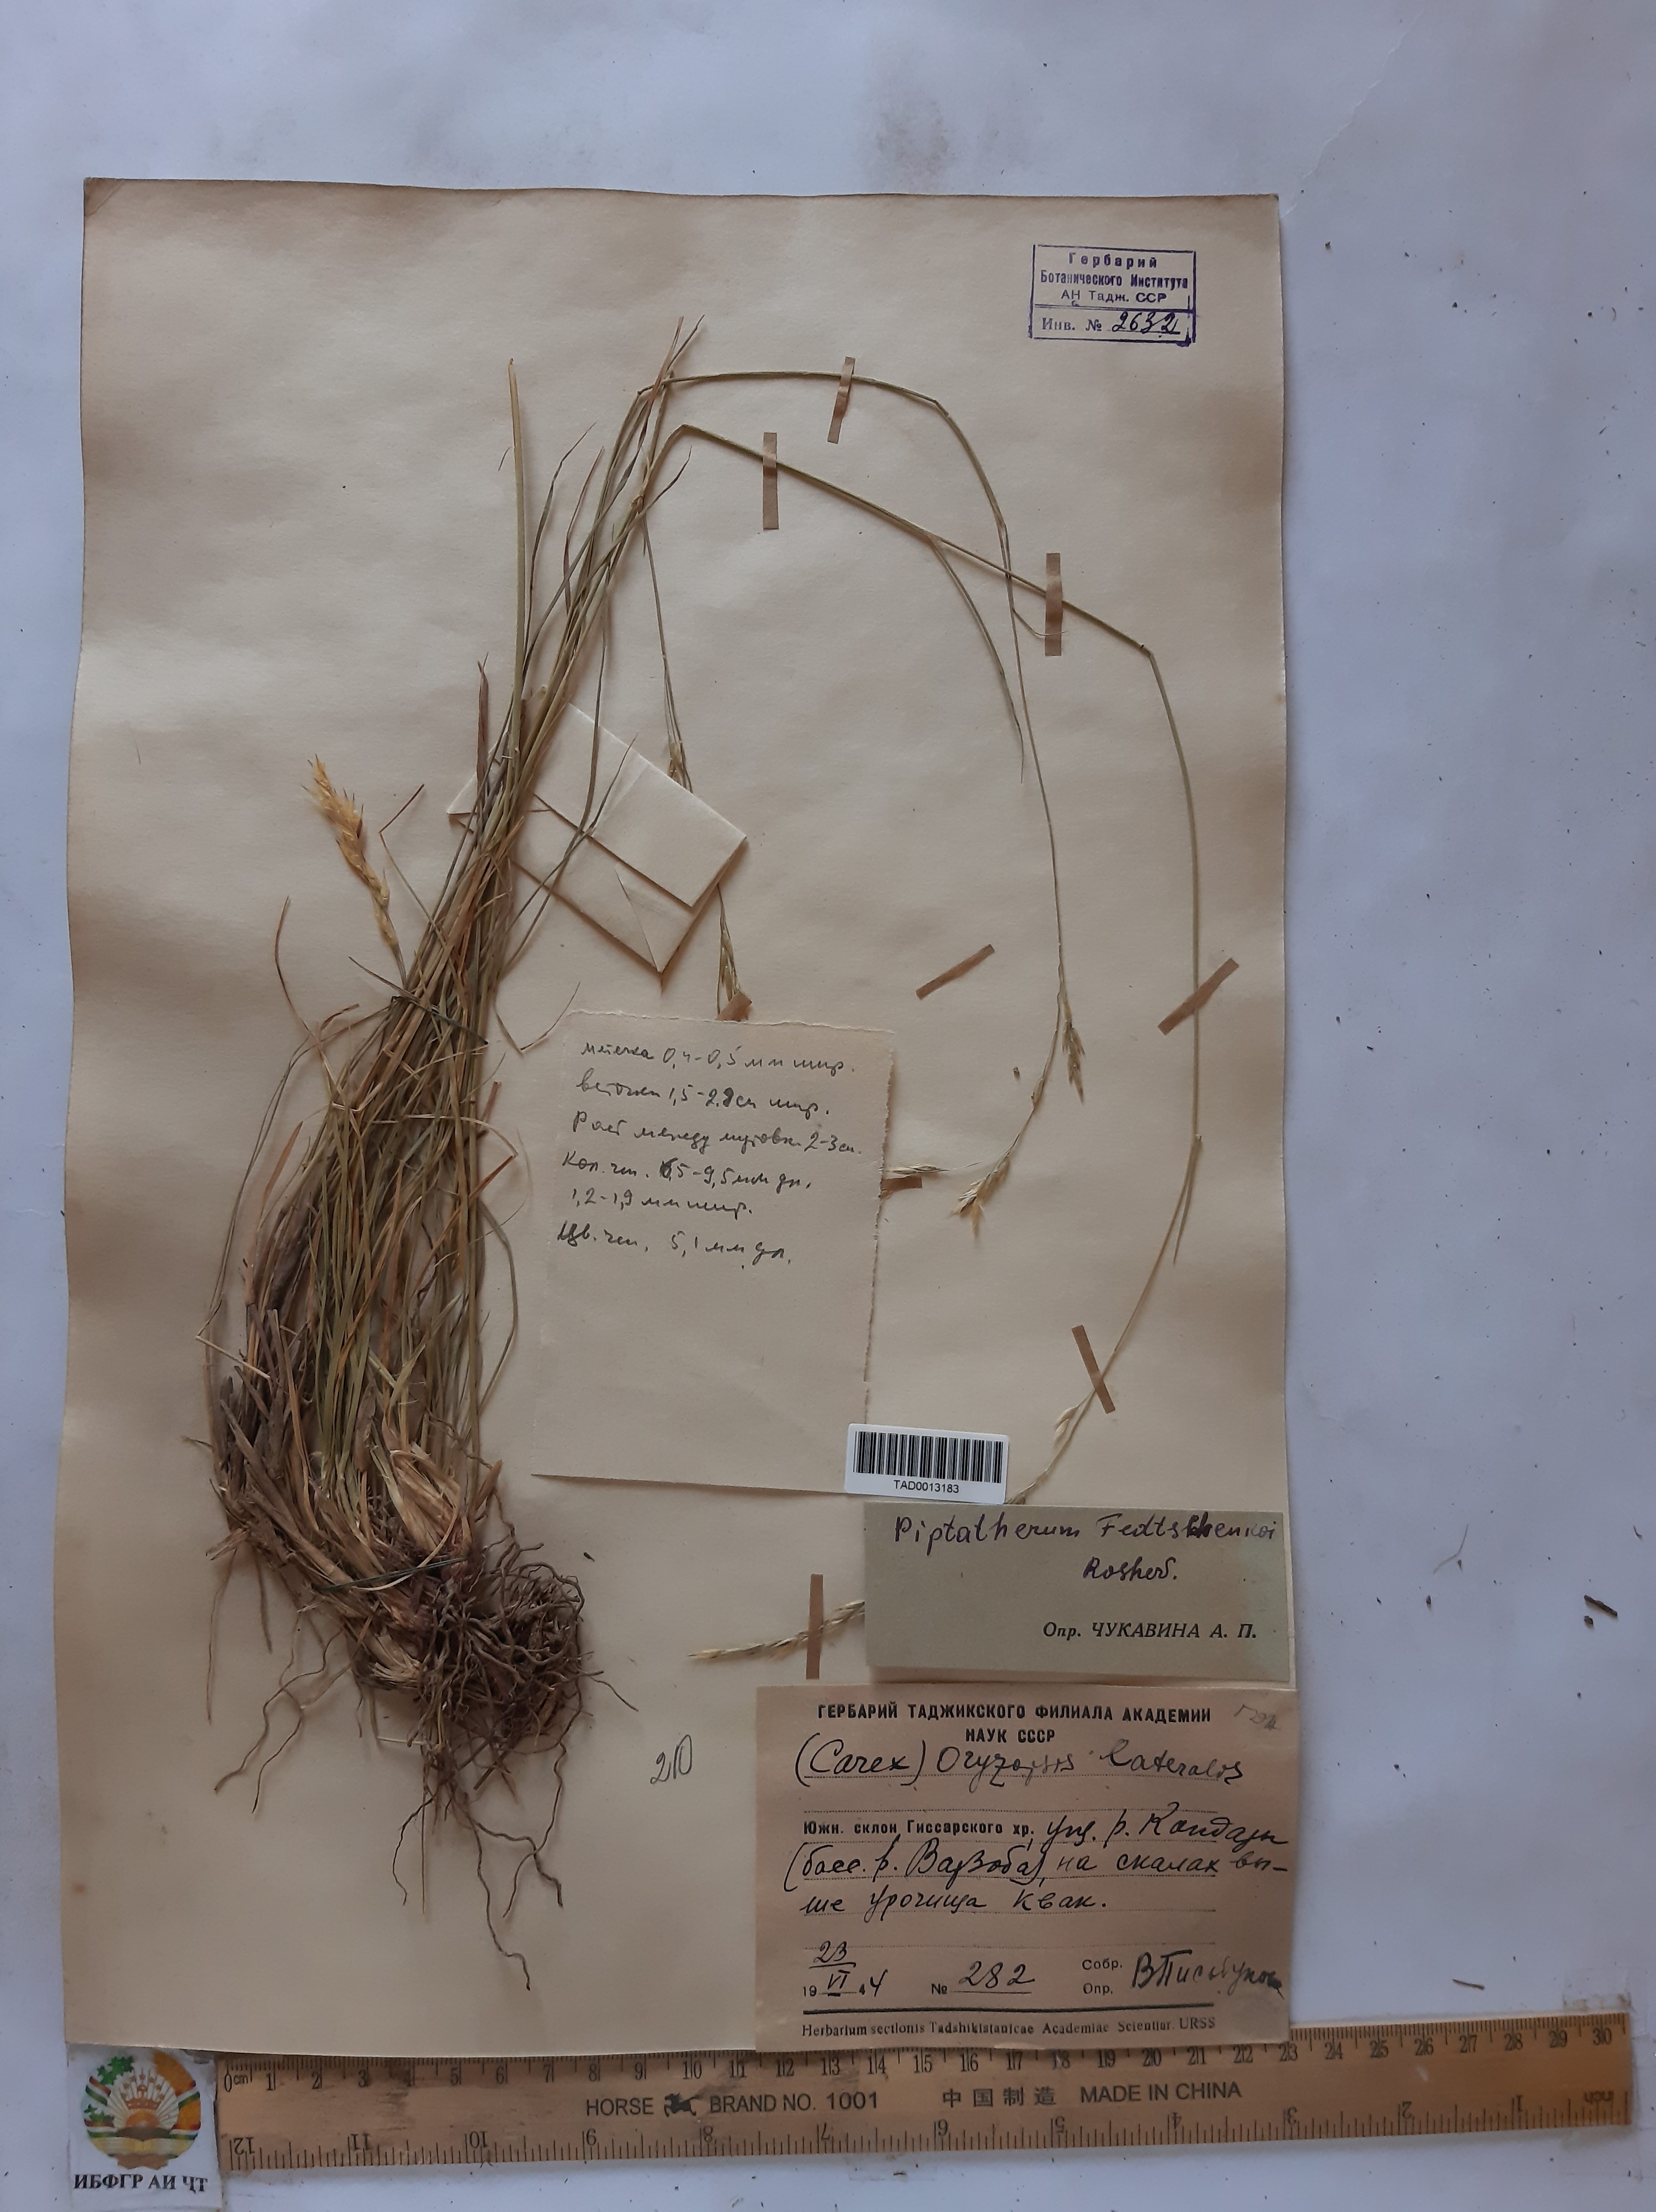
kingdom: Plantae
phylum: Tracheophyta
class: Liliopsida
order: Poales
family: Poaceae
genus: Piptatherum
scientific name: Piptatherum sogdianum
